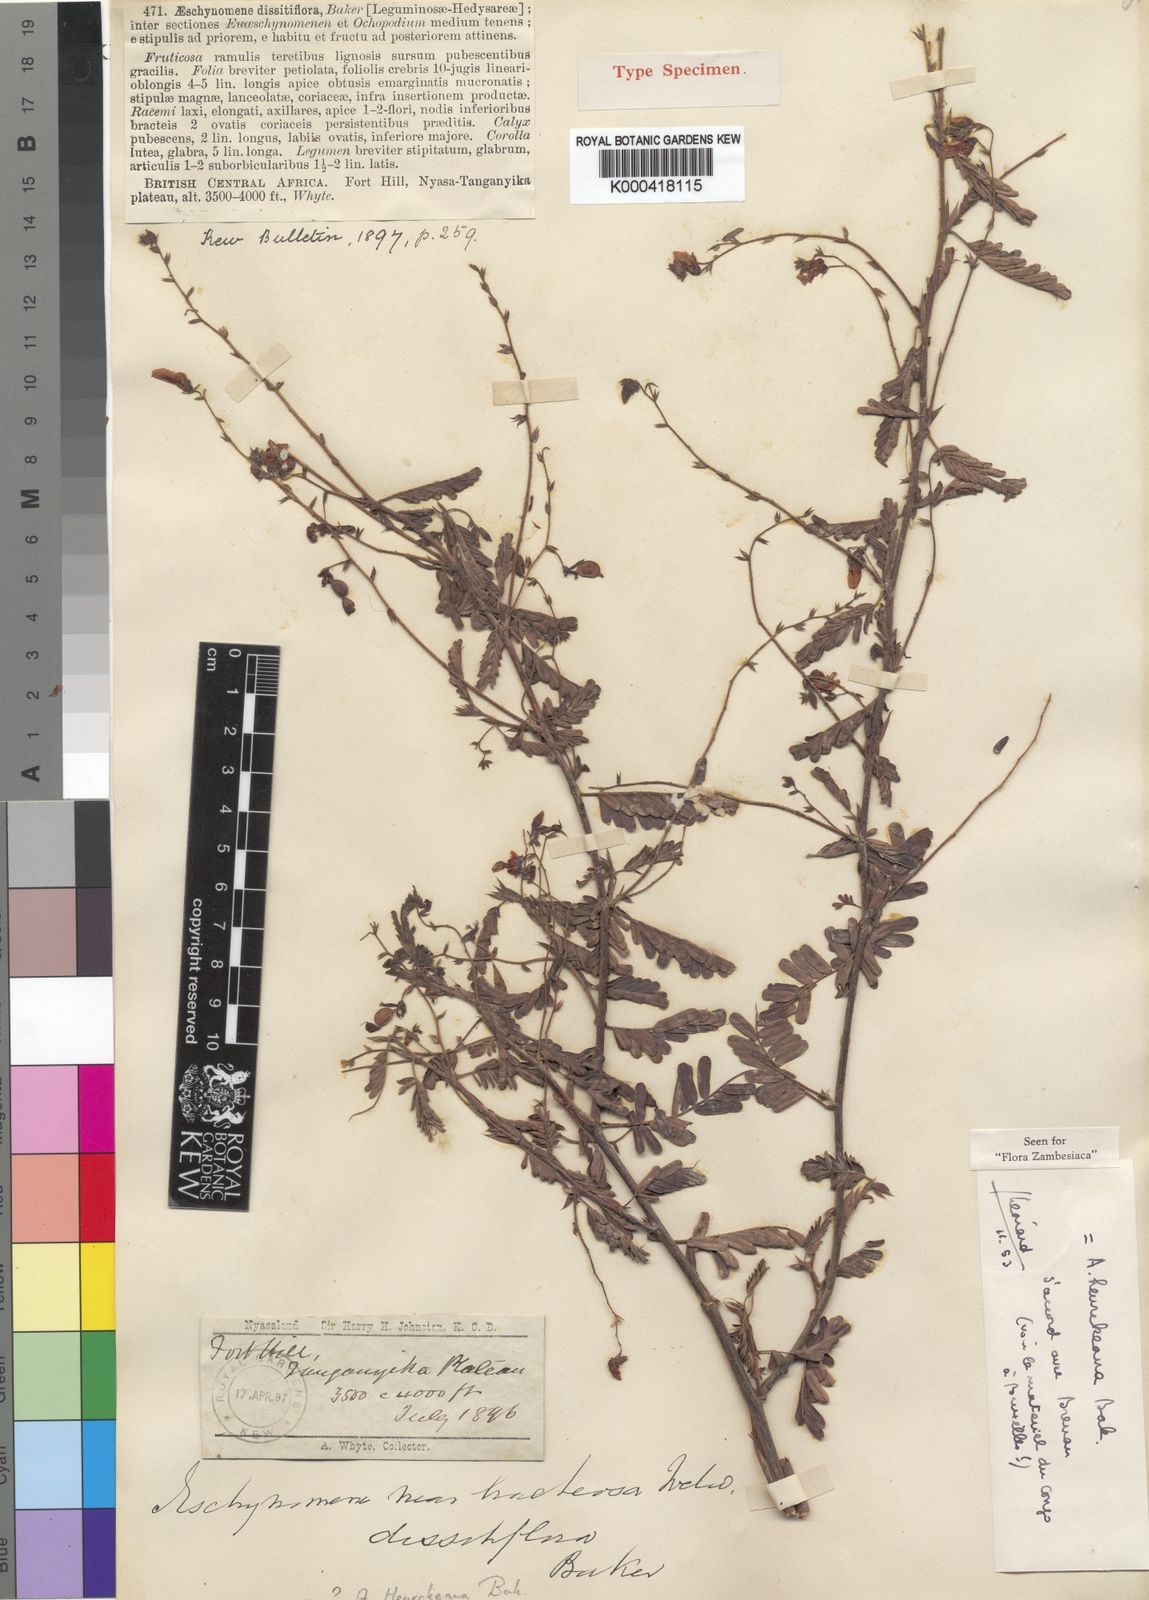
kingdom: Plantae
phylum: Tracheophyta
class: Magnoliopsida
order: Fabales
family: Fabaceae
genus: Aeschynomene
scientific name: Aeschynomene heurckeana
